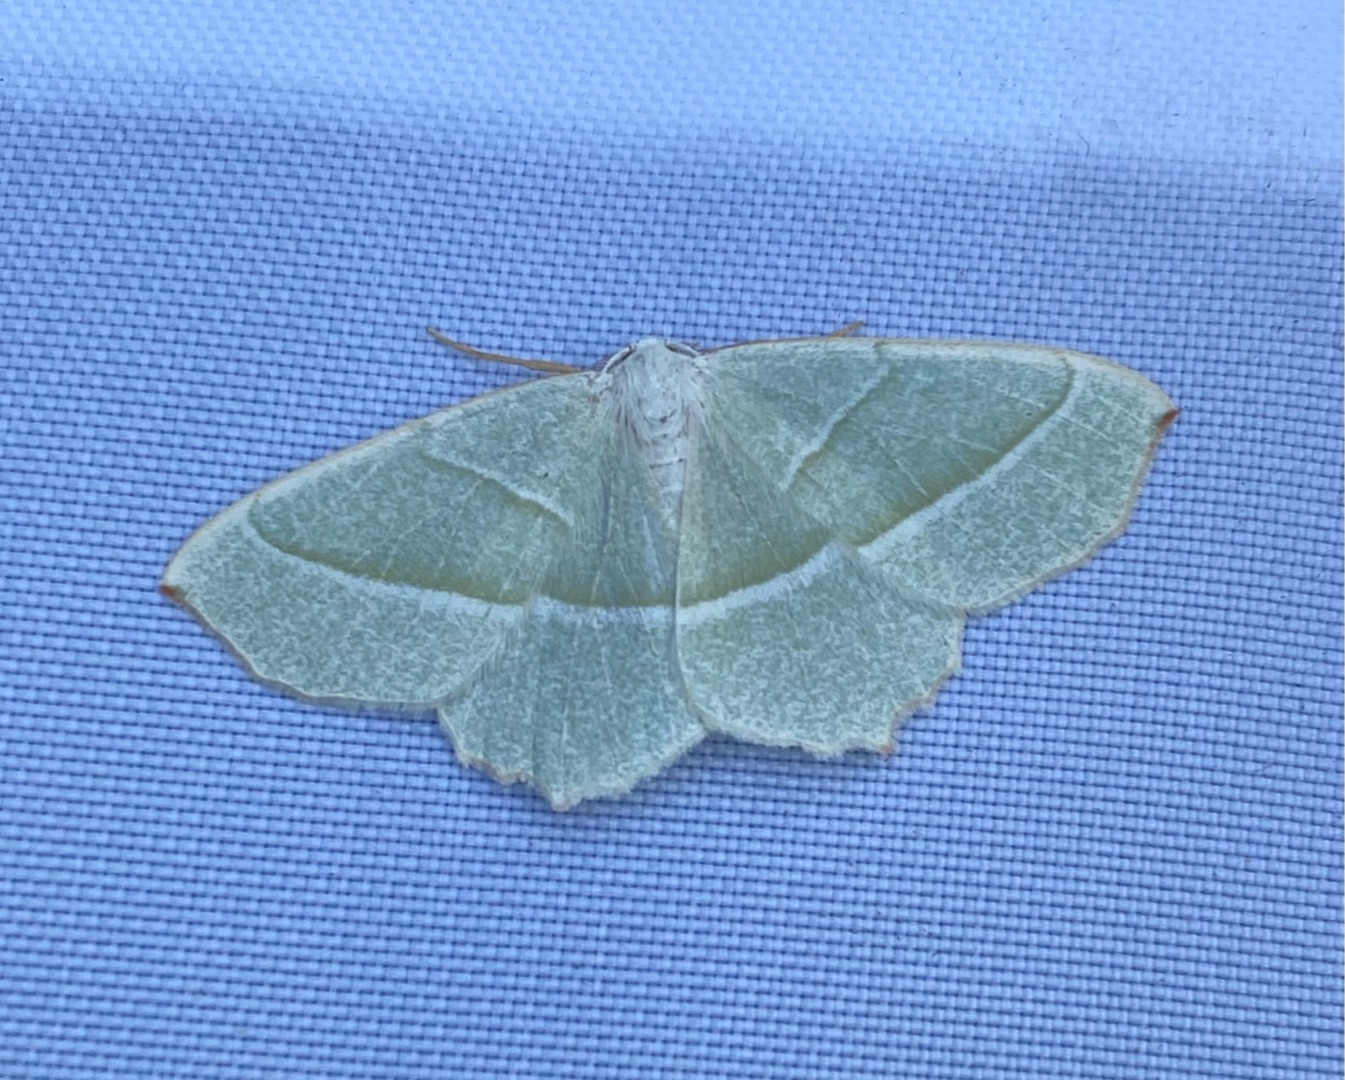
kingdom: Animalia
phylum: Arthropoda
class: Insecta
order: Lepidoptera
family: Geometridae
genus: Campaea
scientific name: Campaea margaritaria
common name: Perlemåler
